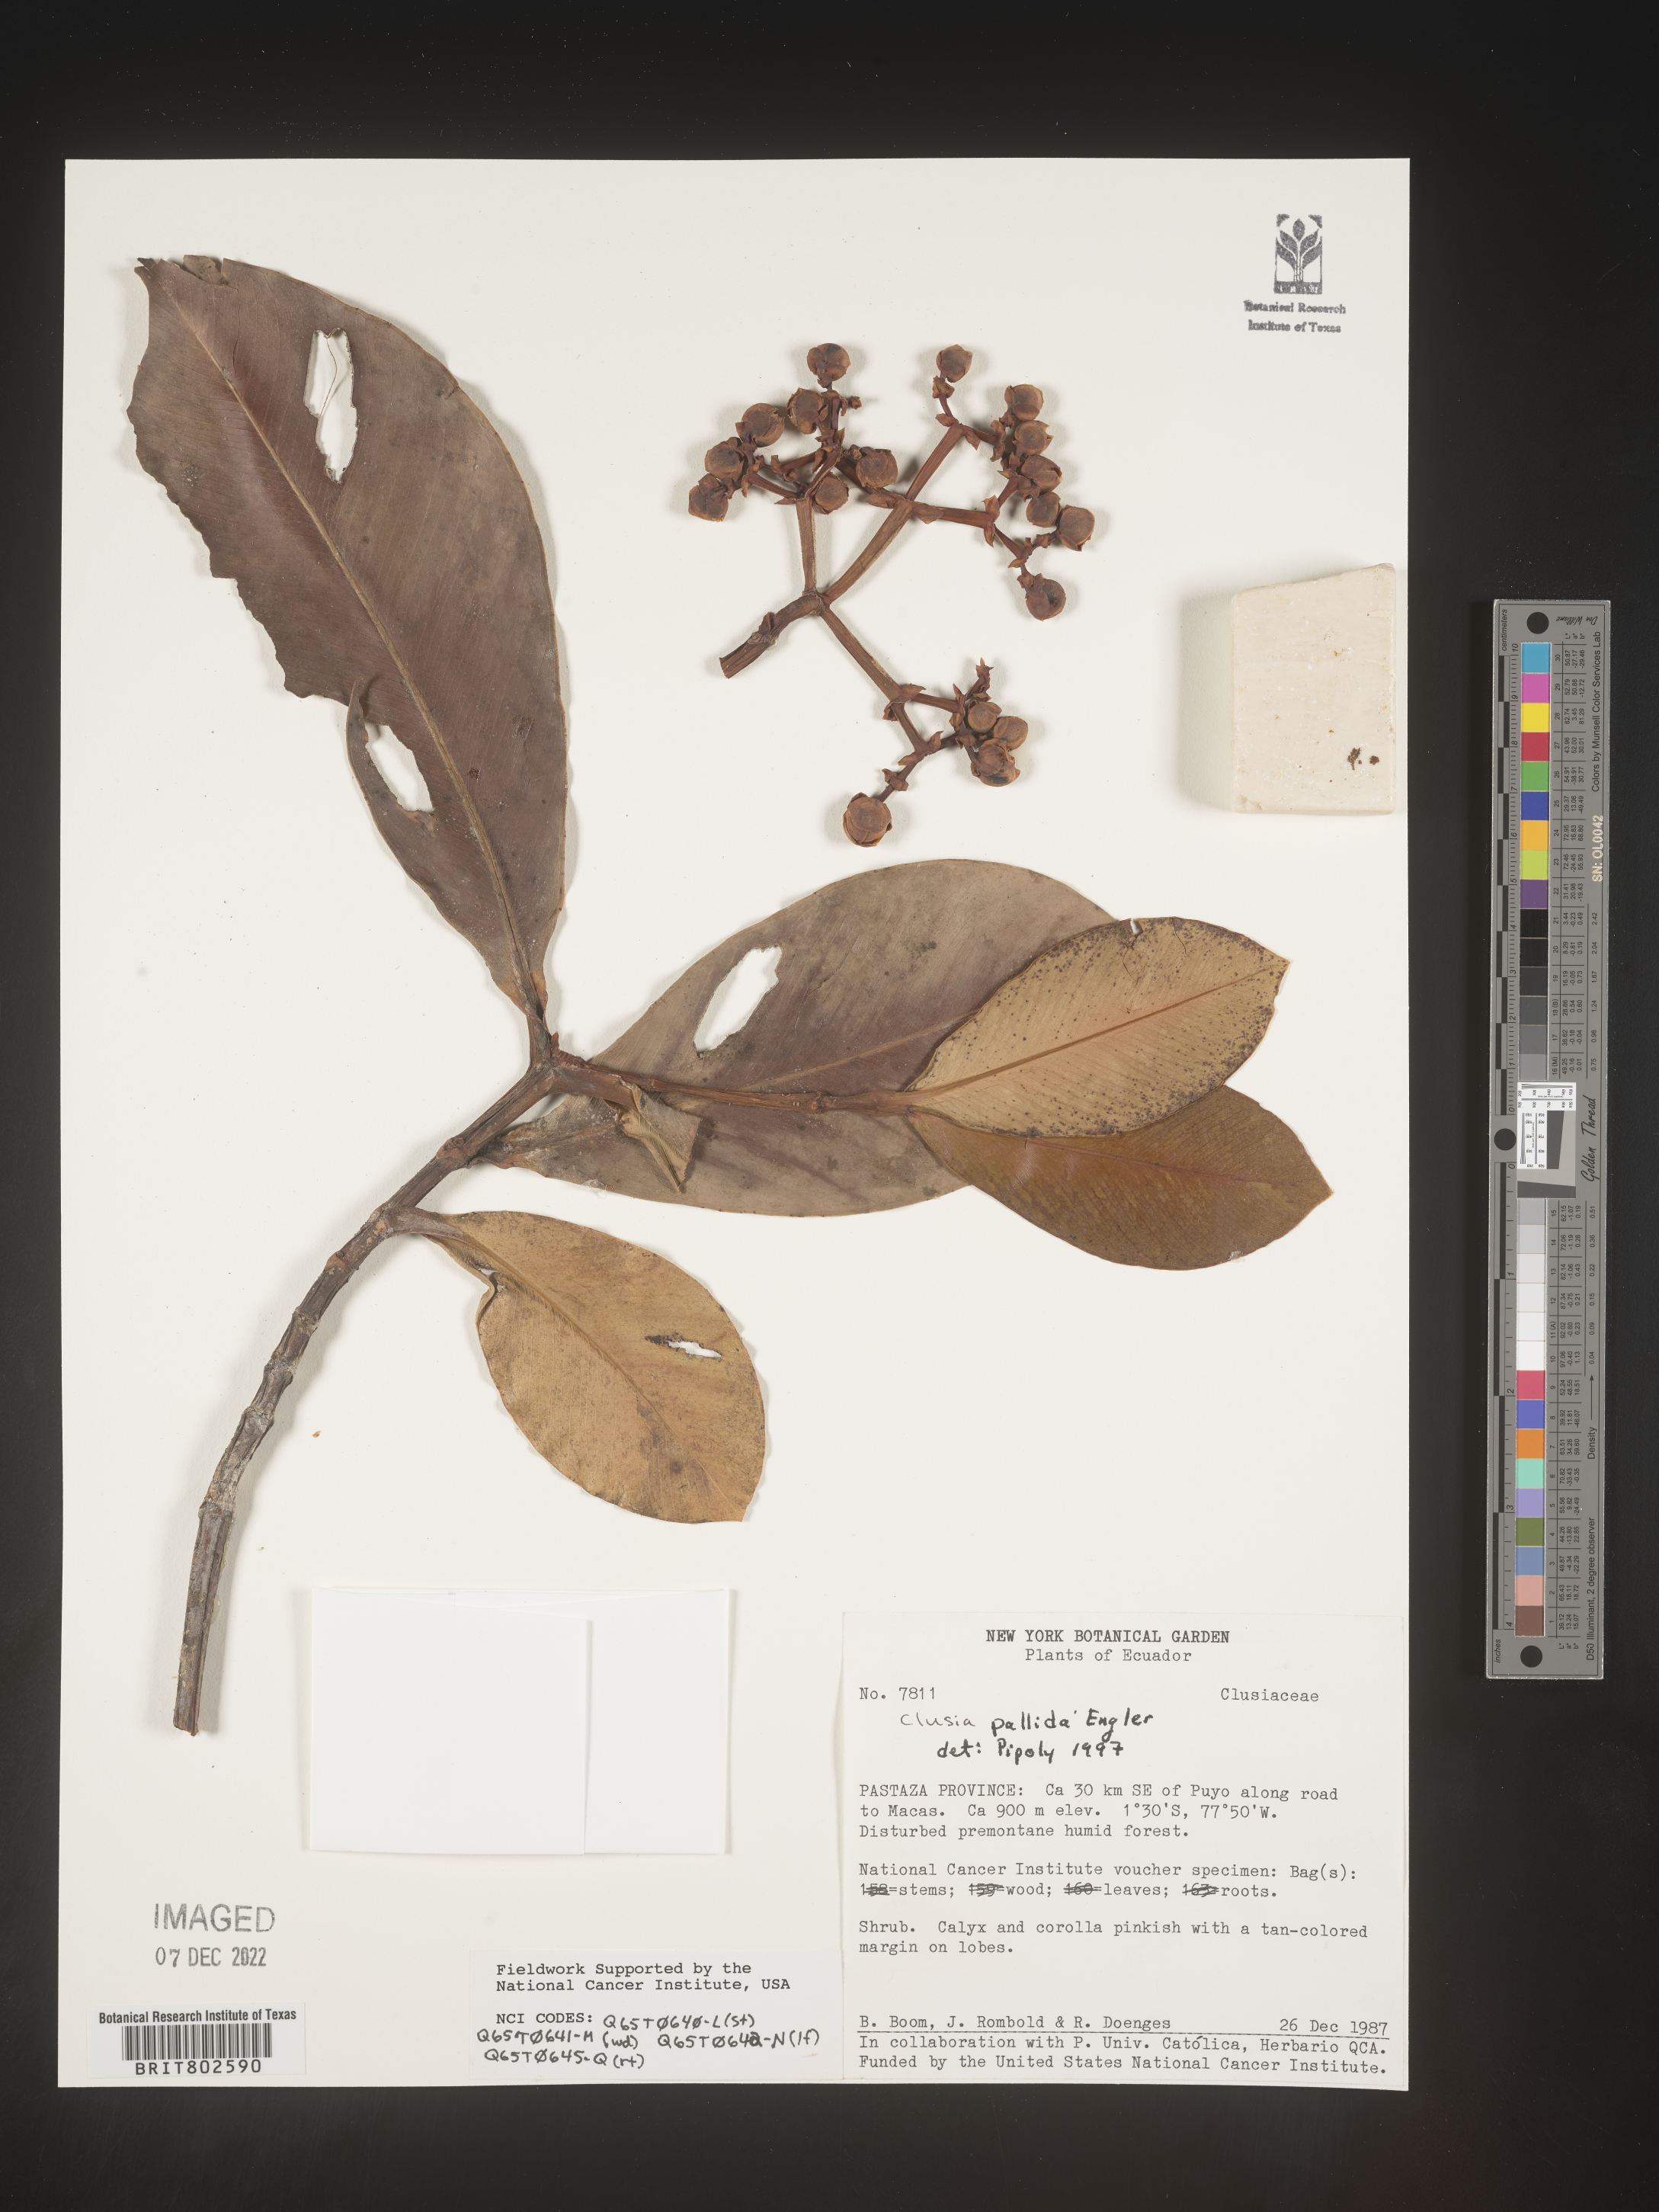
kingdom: Plantae
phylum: Tracheophyta
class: Magnoliopsida
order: Malpighiales
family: Clusiaceae
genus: Clusia
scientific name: Clusia pallida
